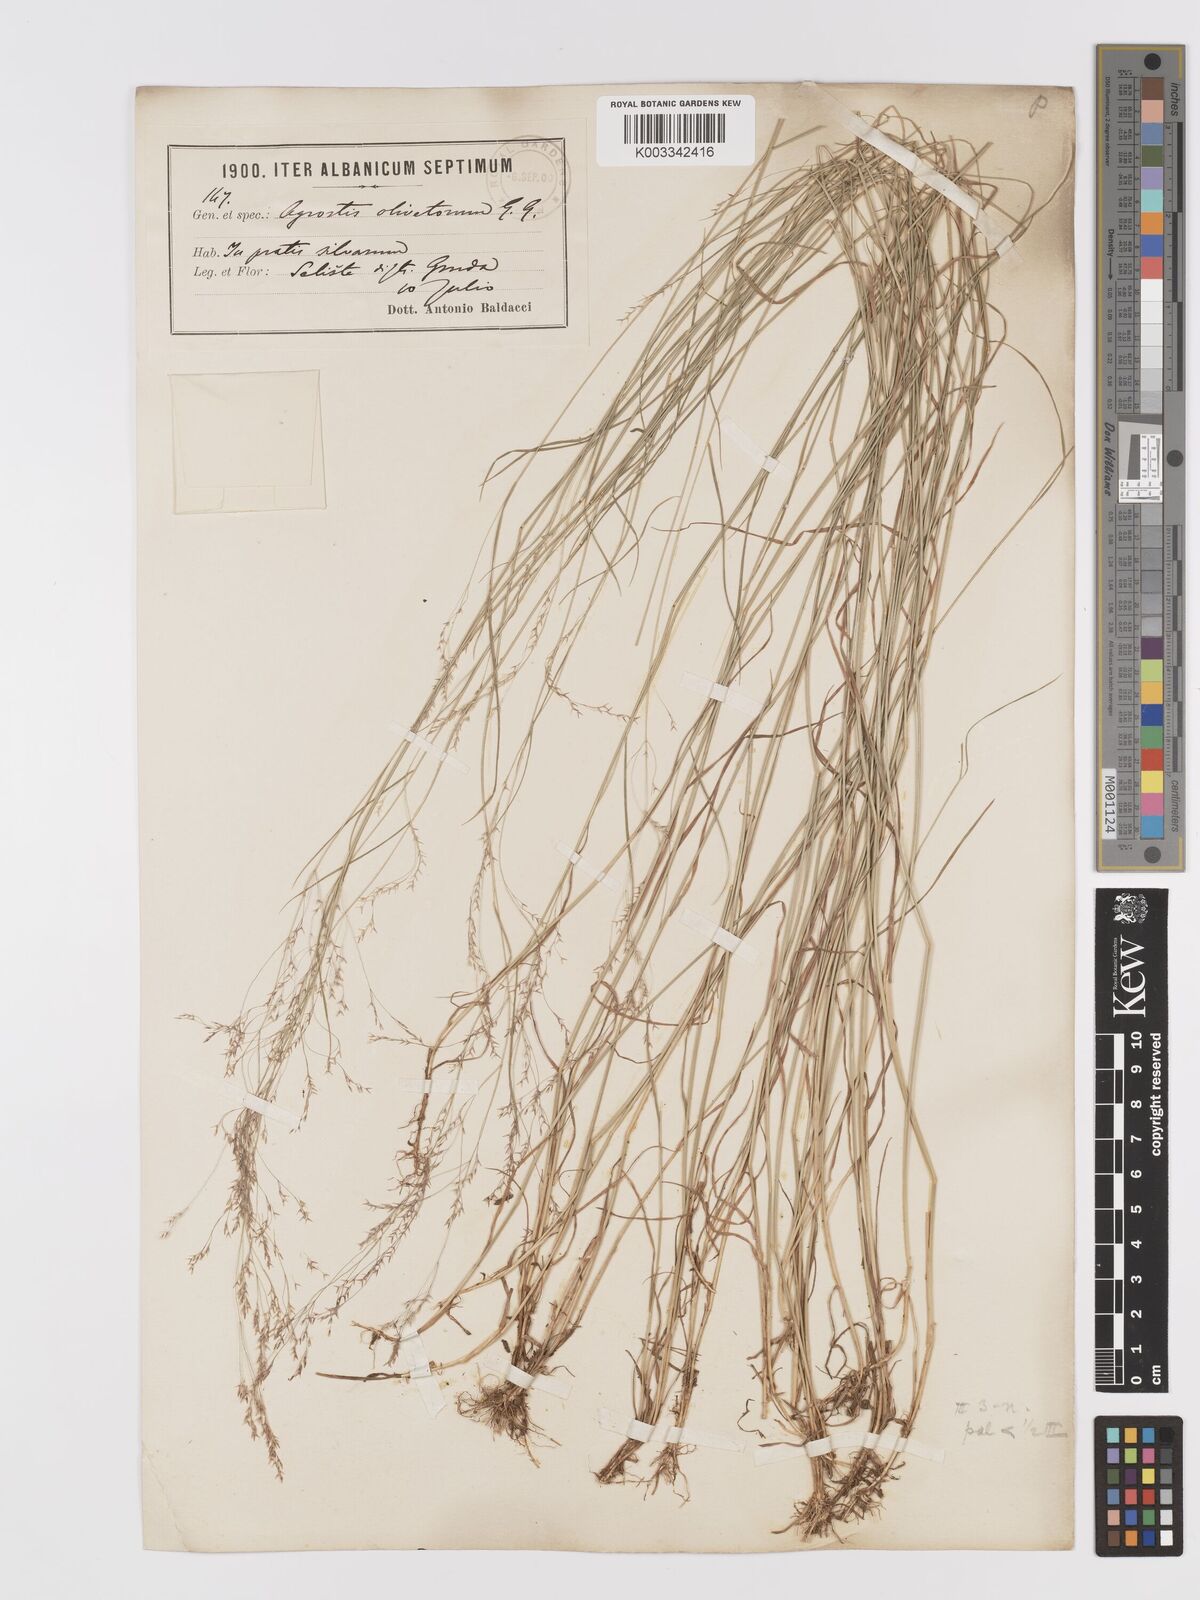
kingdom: Plantae
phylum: Tracheophyta
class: Liliopsida
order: Poales
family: Poaceae
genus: Agrostis
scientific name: Agrostis castellana
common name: Highland bent
